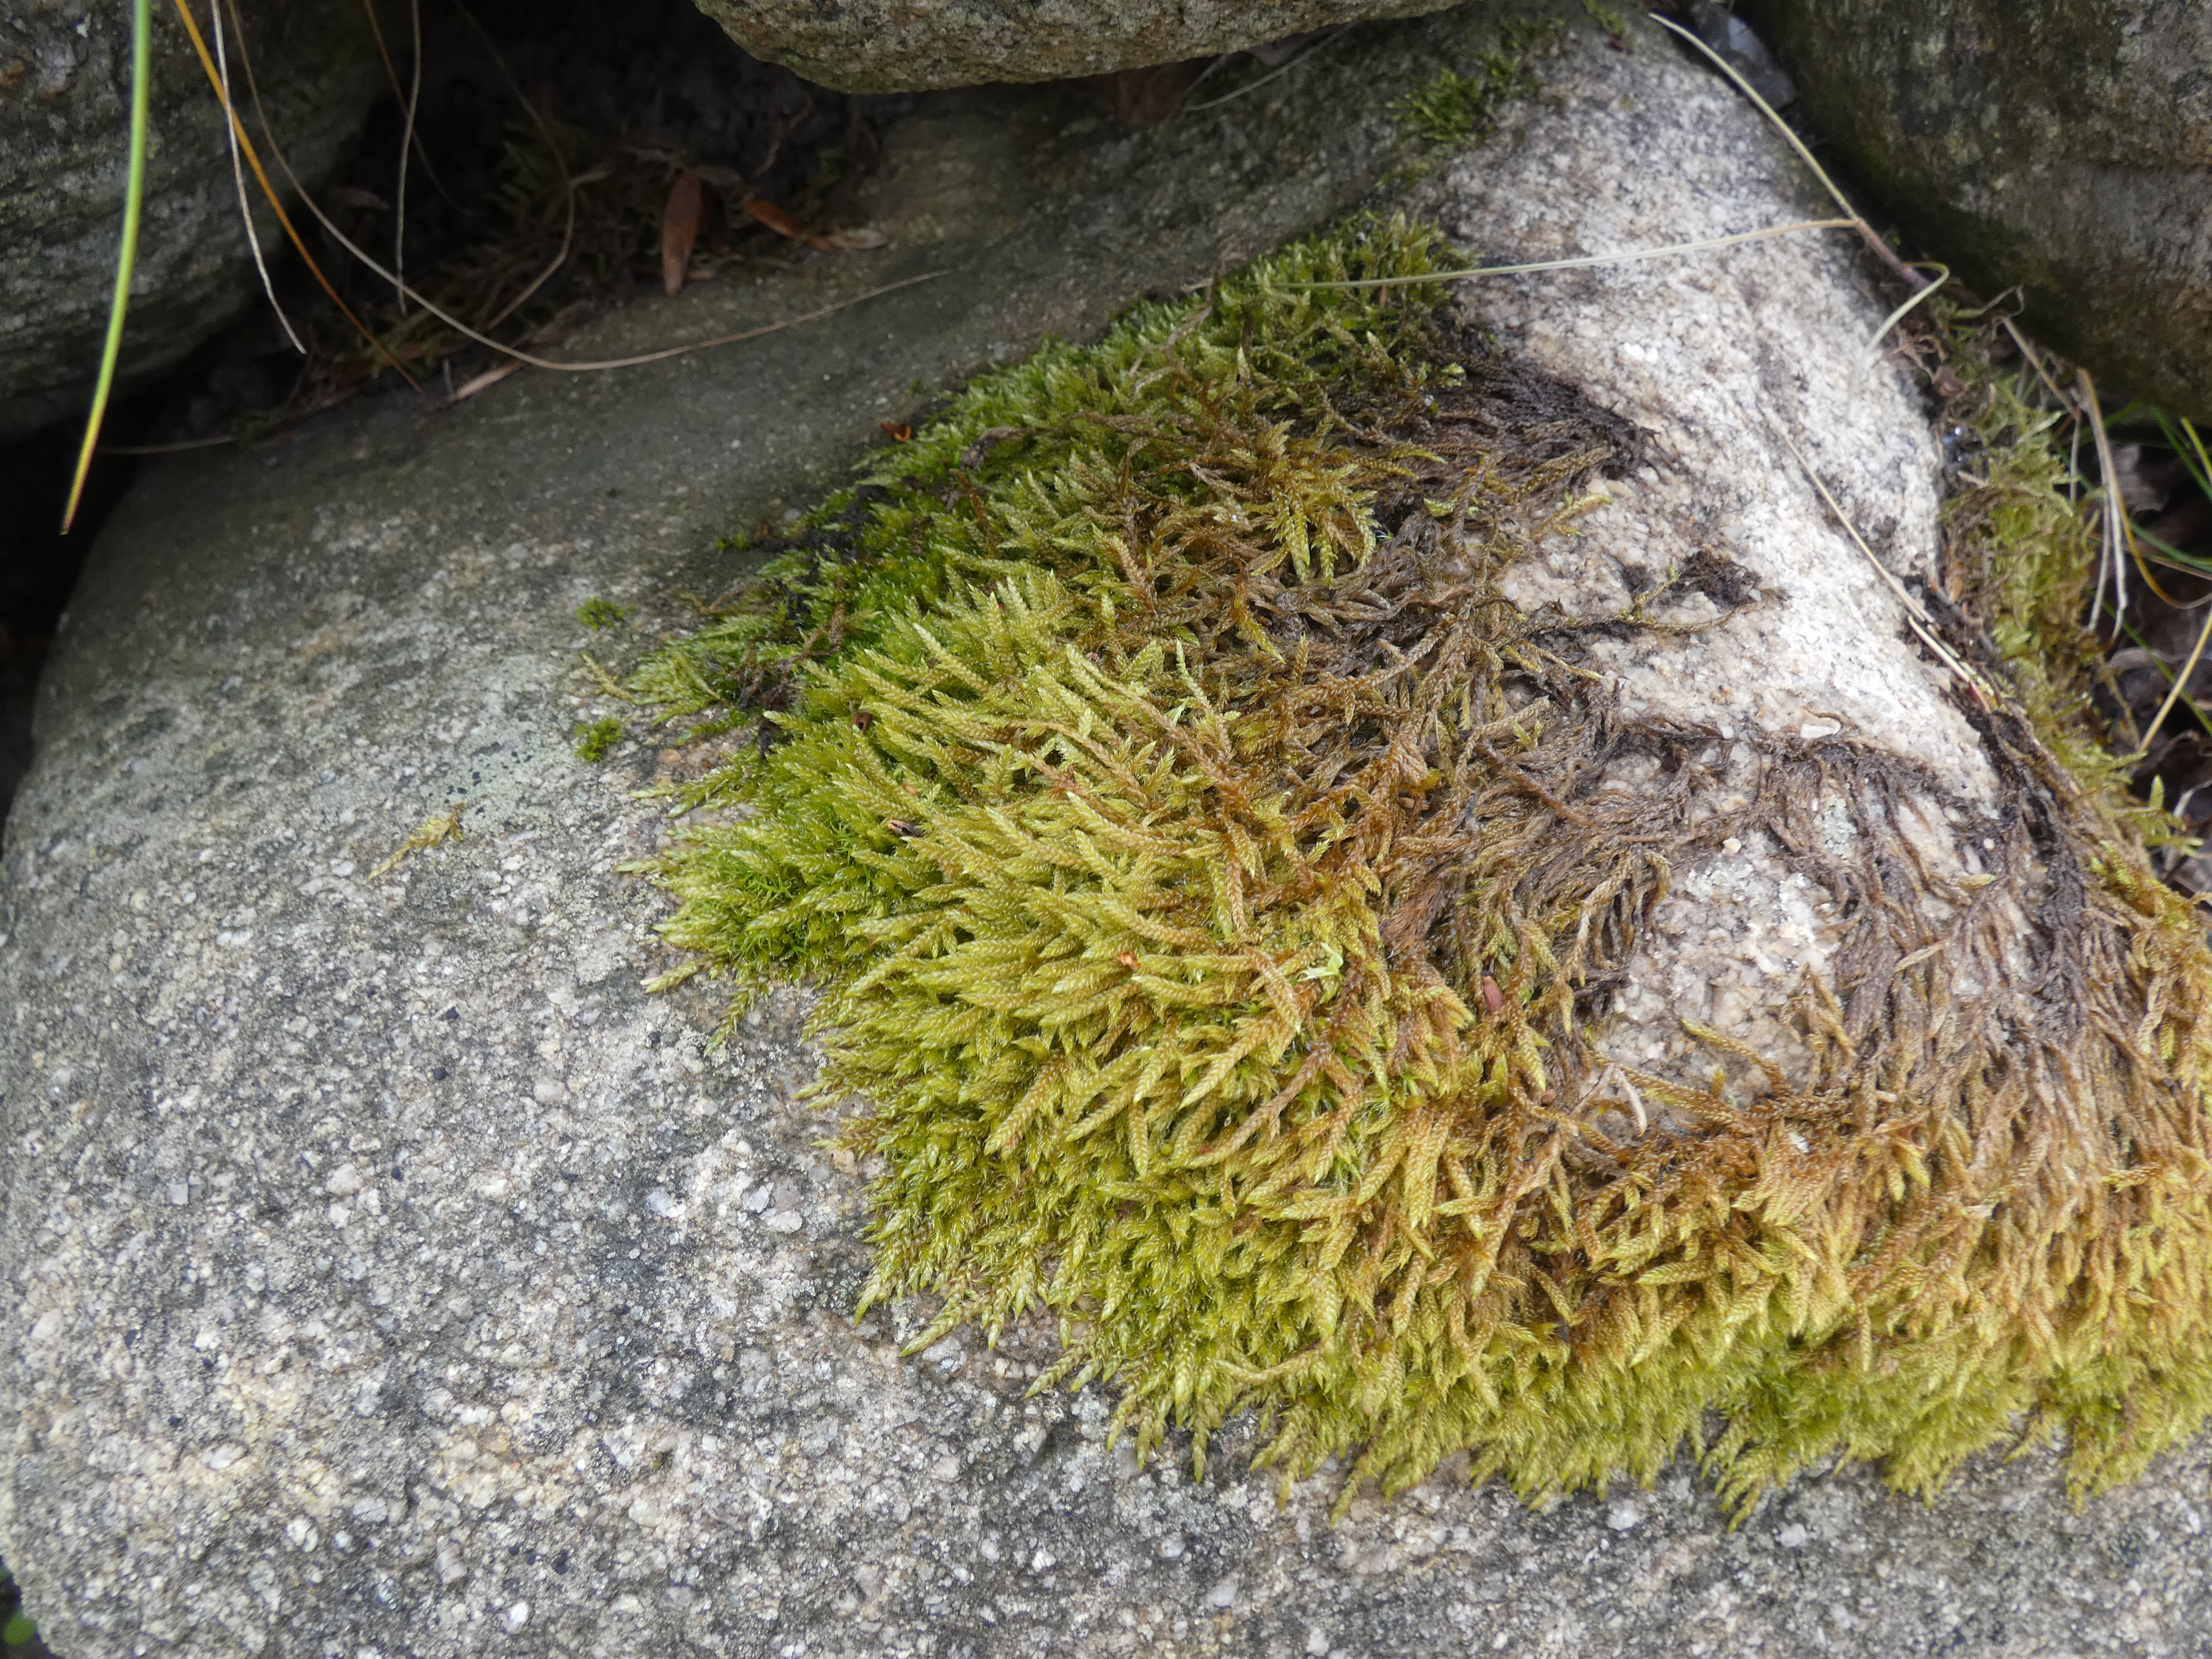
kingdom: Plantae
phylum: Bryophyta
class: Bryopsida
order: Hypnales
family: Hypnaceae
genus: Hypnum
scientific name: Hypnum cupressiforme
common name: Almindelig cypresmos
